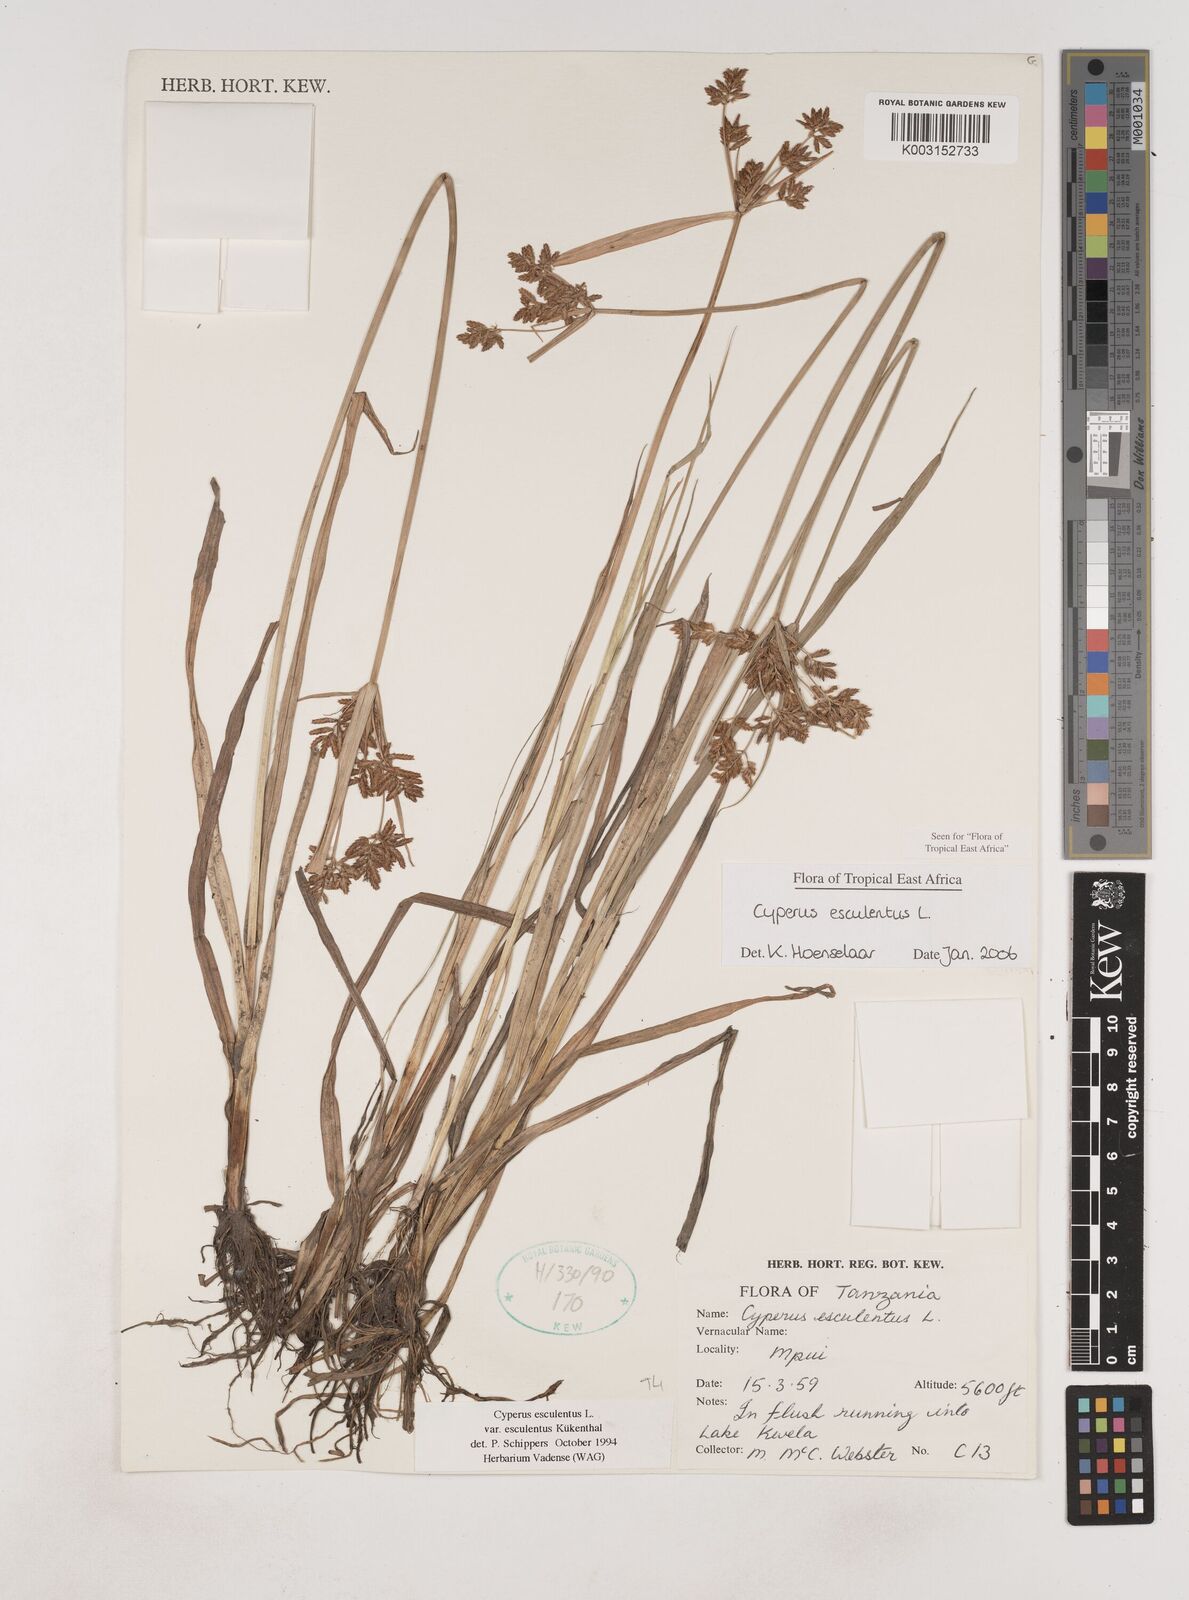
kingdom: Plantae
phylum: Tracheophyta
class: Liliopsida
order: Poales
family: Cyperaceae
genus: Cyperus
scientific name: Cyperus esculentus
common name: Yellow nutsedge
